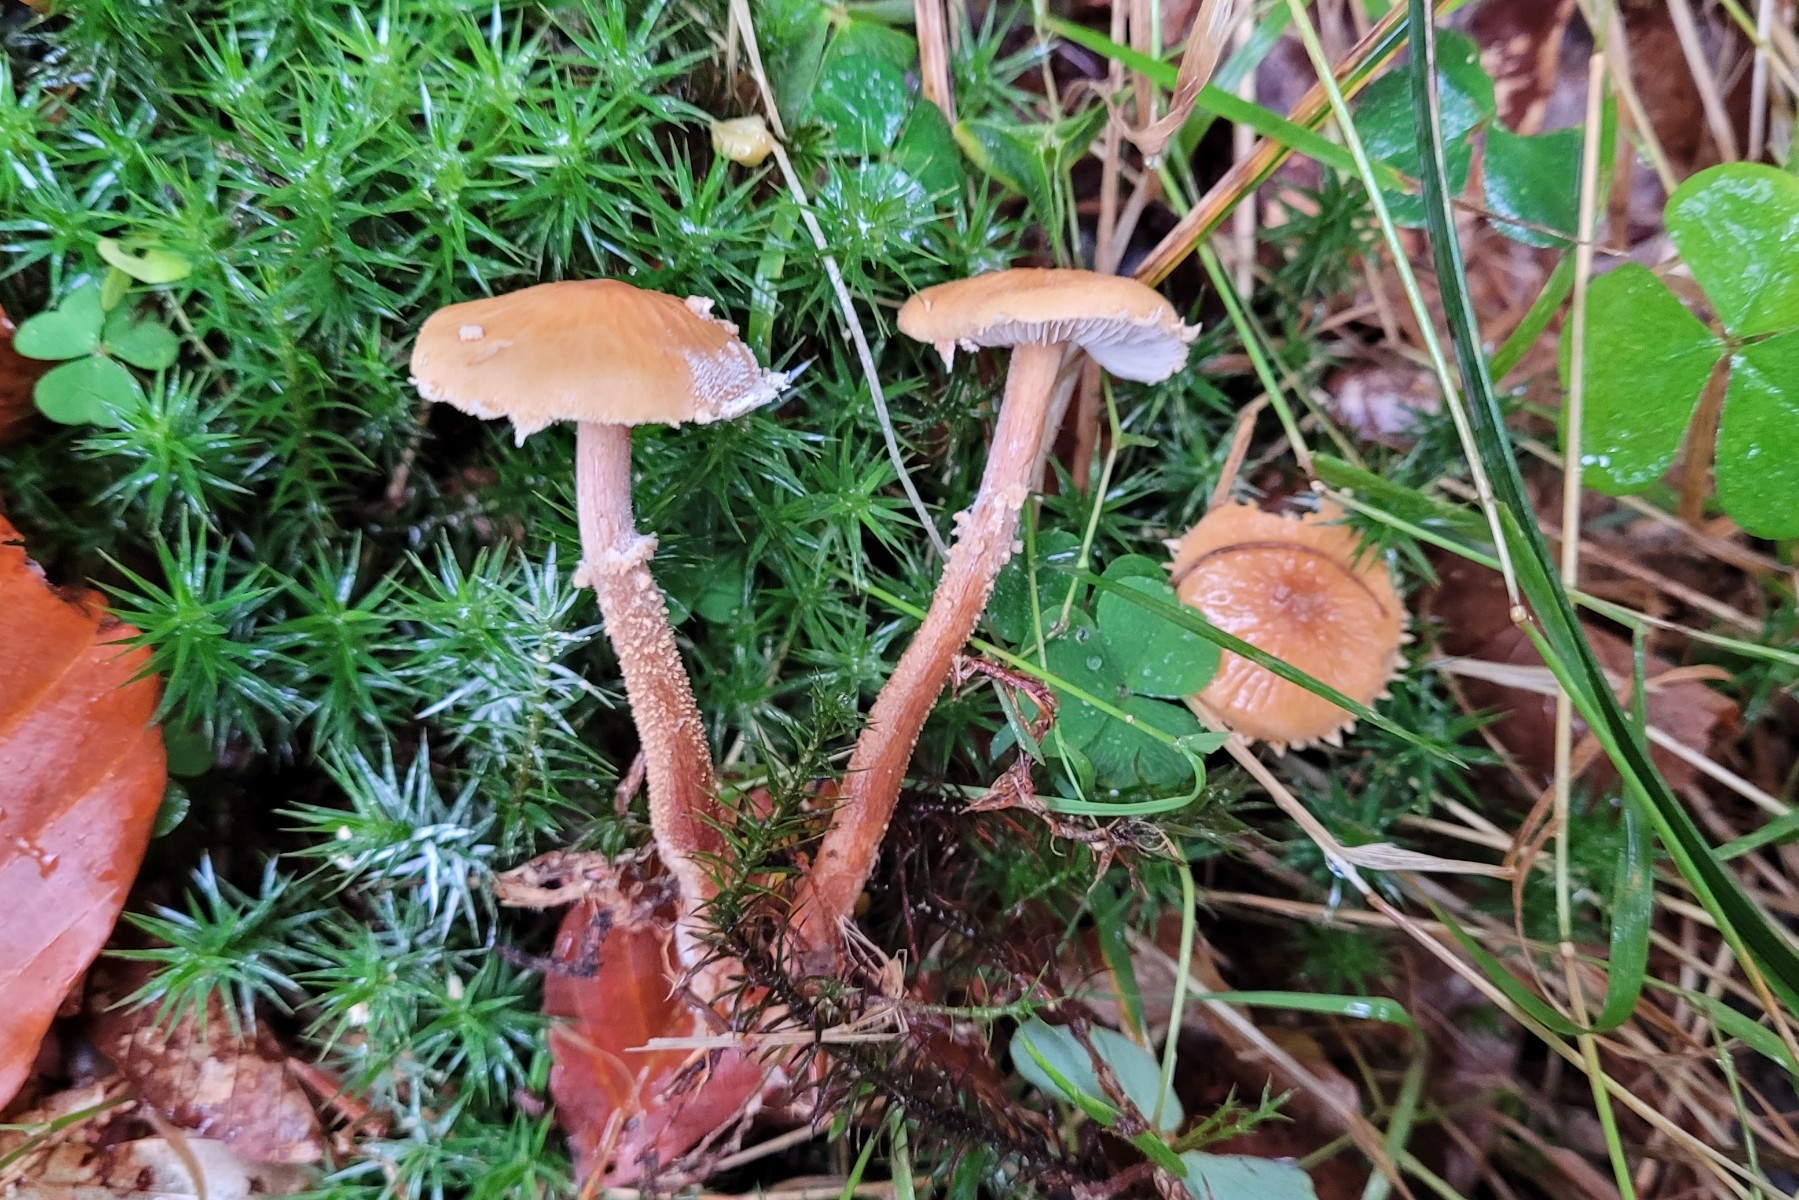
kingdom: Fungi
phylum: Basidiomycota
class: Agaricomycetes
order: Agaricales
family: Tricholomataceae
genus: Cystoderma
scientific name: Cystoderma amianthinum
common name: okkergul grynhat
